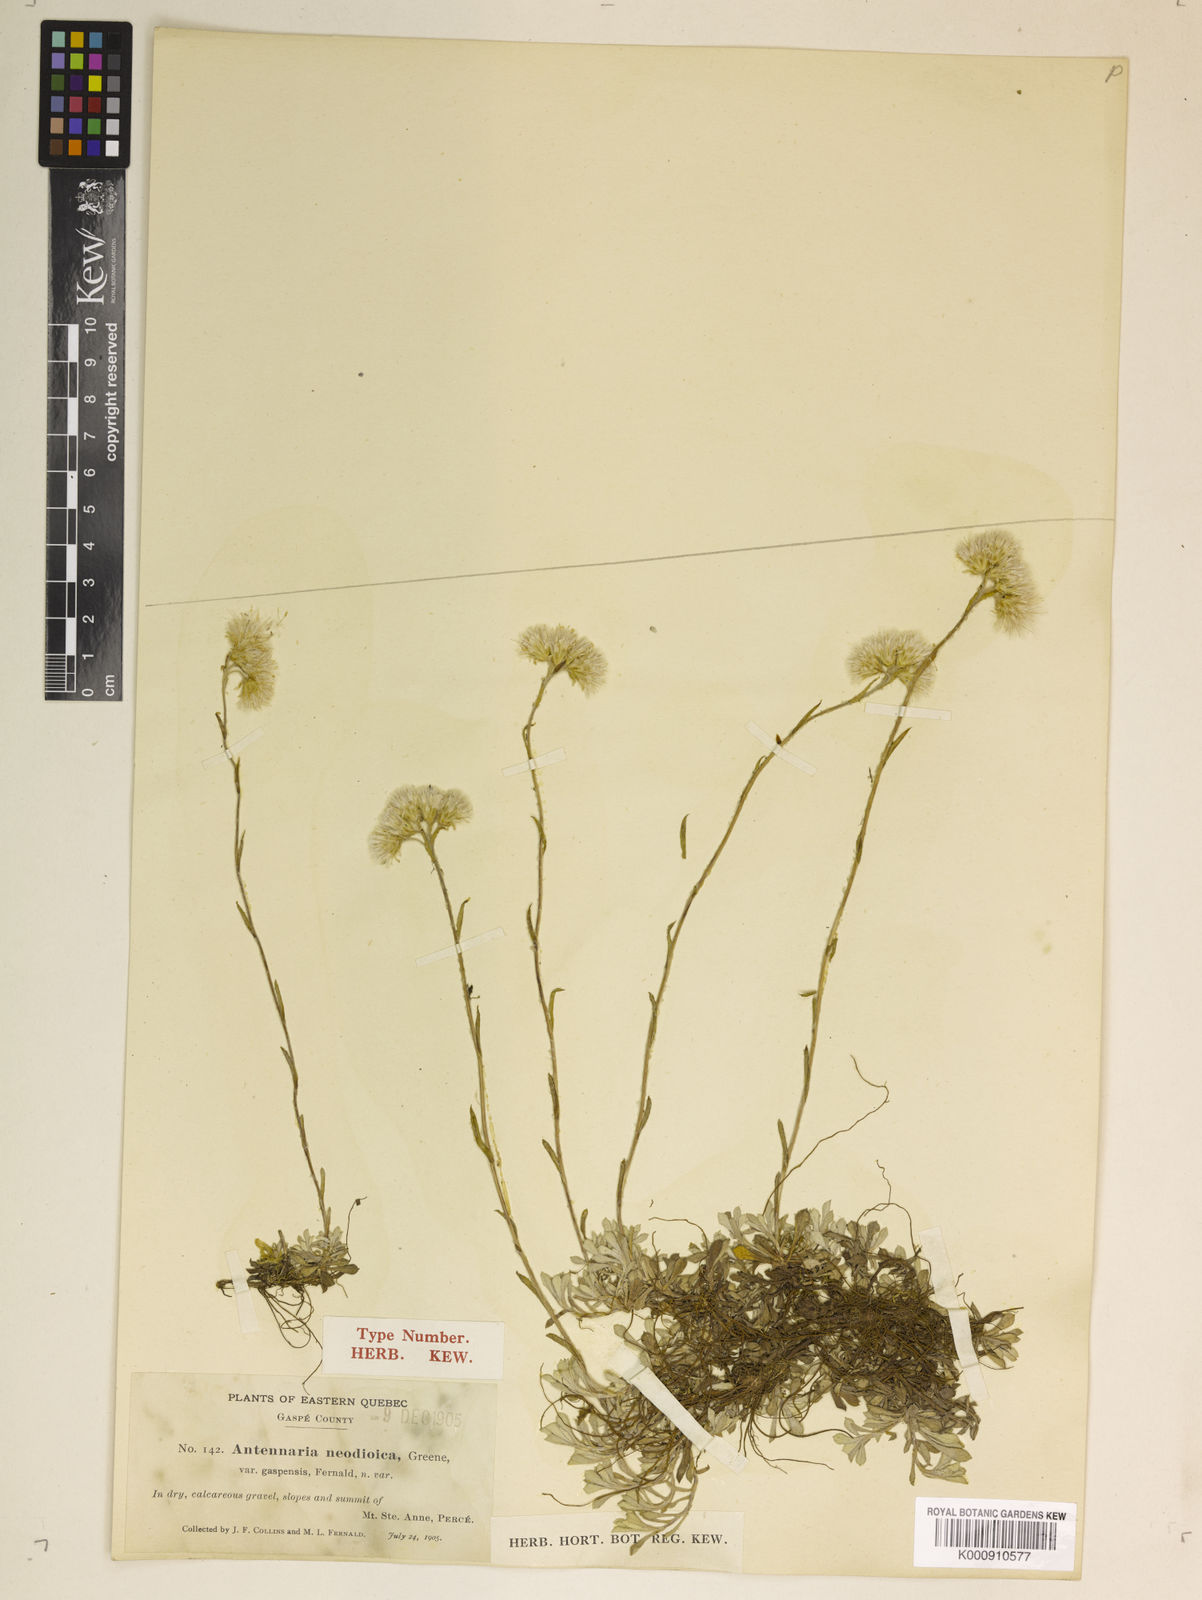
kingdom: Plantae
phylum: Tracheophyta
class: Magnoliopsida
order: Asterales
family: Asteraceae
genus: Antennaria
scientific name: Antennaria howellii
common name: Howell's pussytoes
